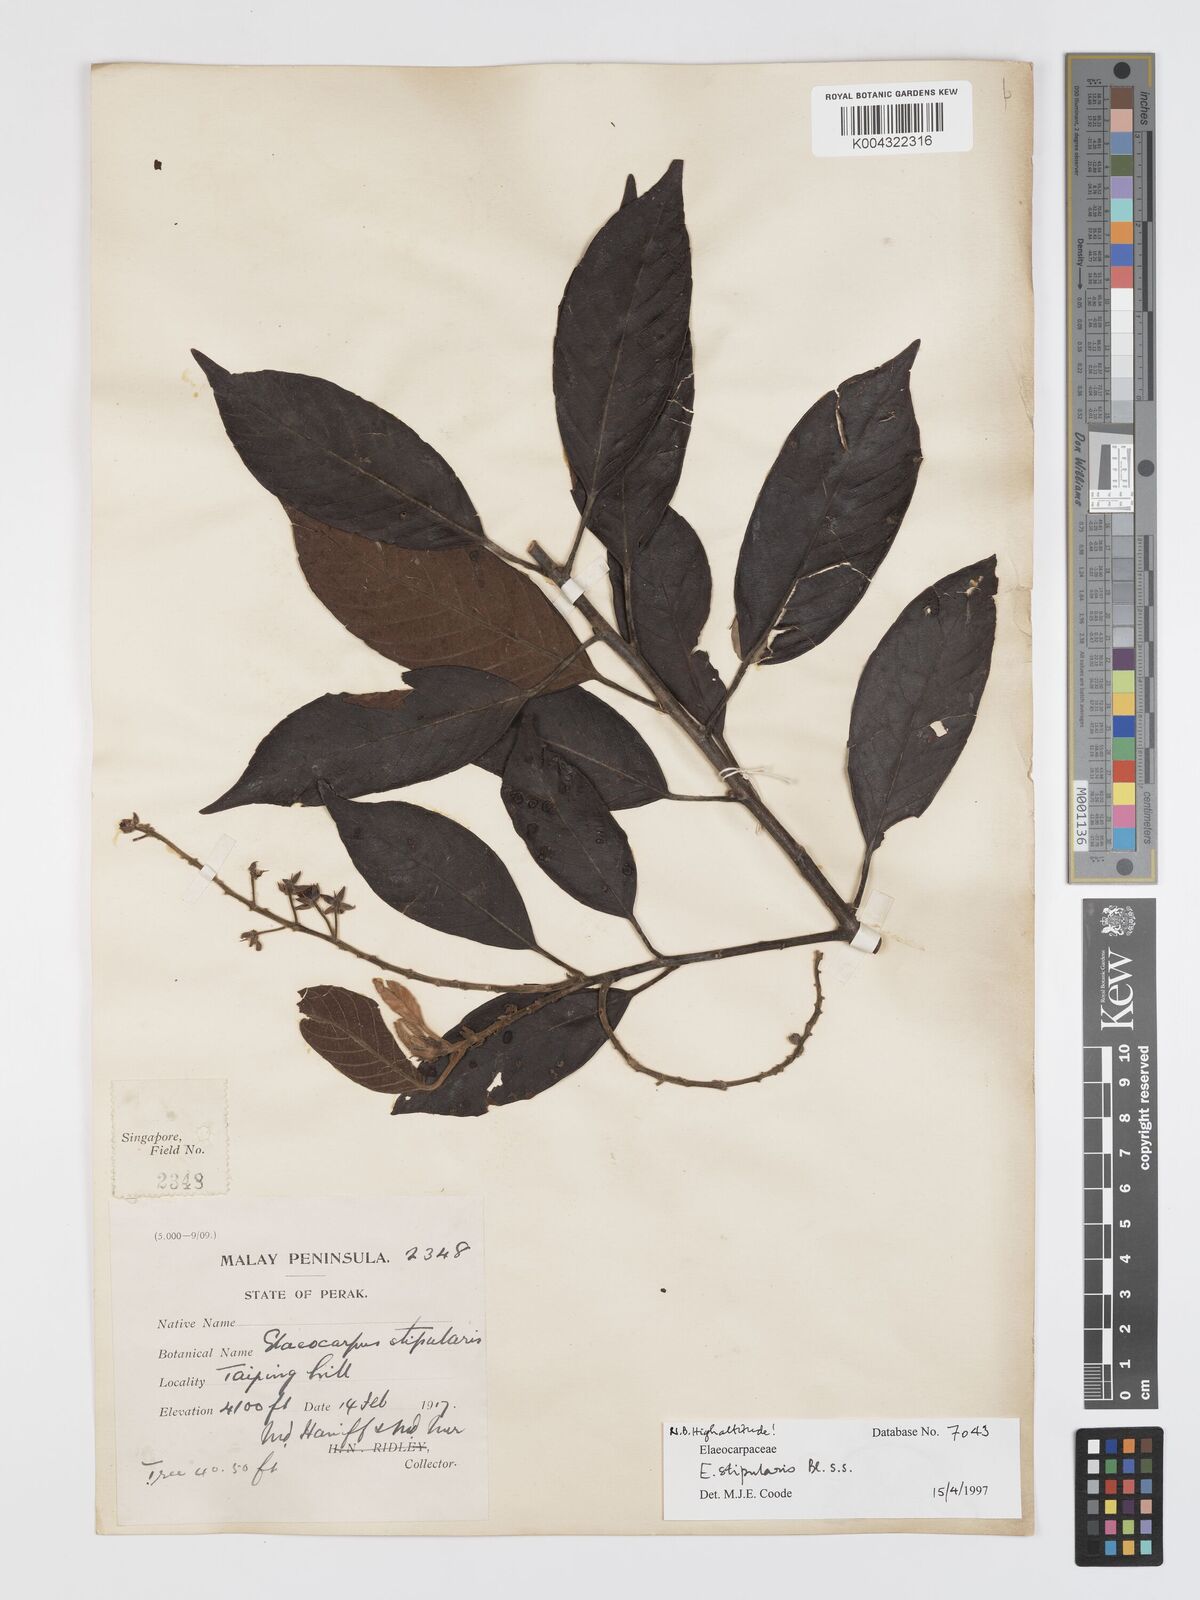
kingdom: Plantae
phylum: Tracheophyta
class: Magnoliopsida
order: Oxalidales
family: Elaeocarpaceae
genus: Elaeocarpus
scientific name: Elaeocarpus stipularis
